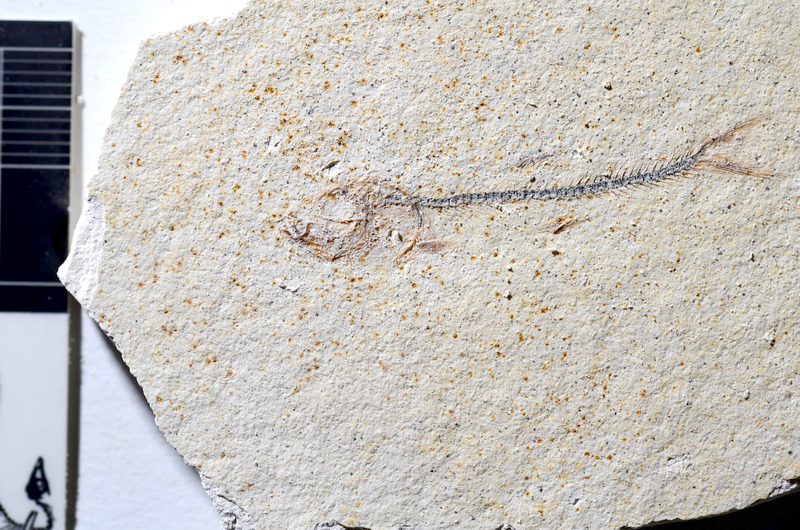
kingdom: Animalia
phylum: Chordata
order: Salmoniformes
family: Orthogonikleithridae
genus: Orthogonikleithrus
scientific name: Orthogonikleithrus hoelli
